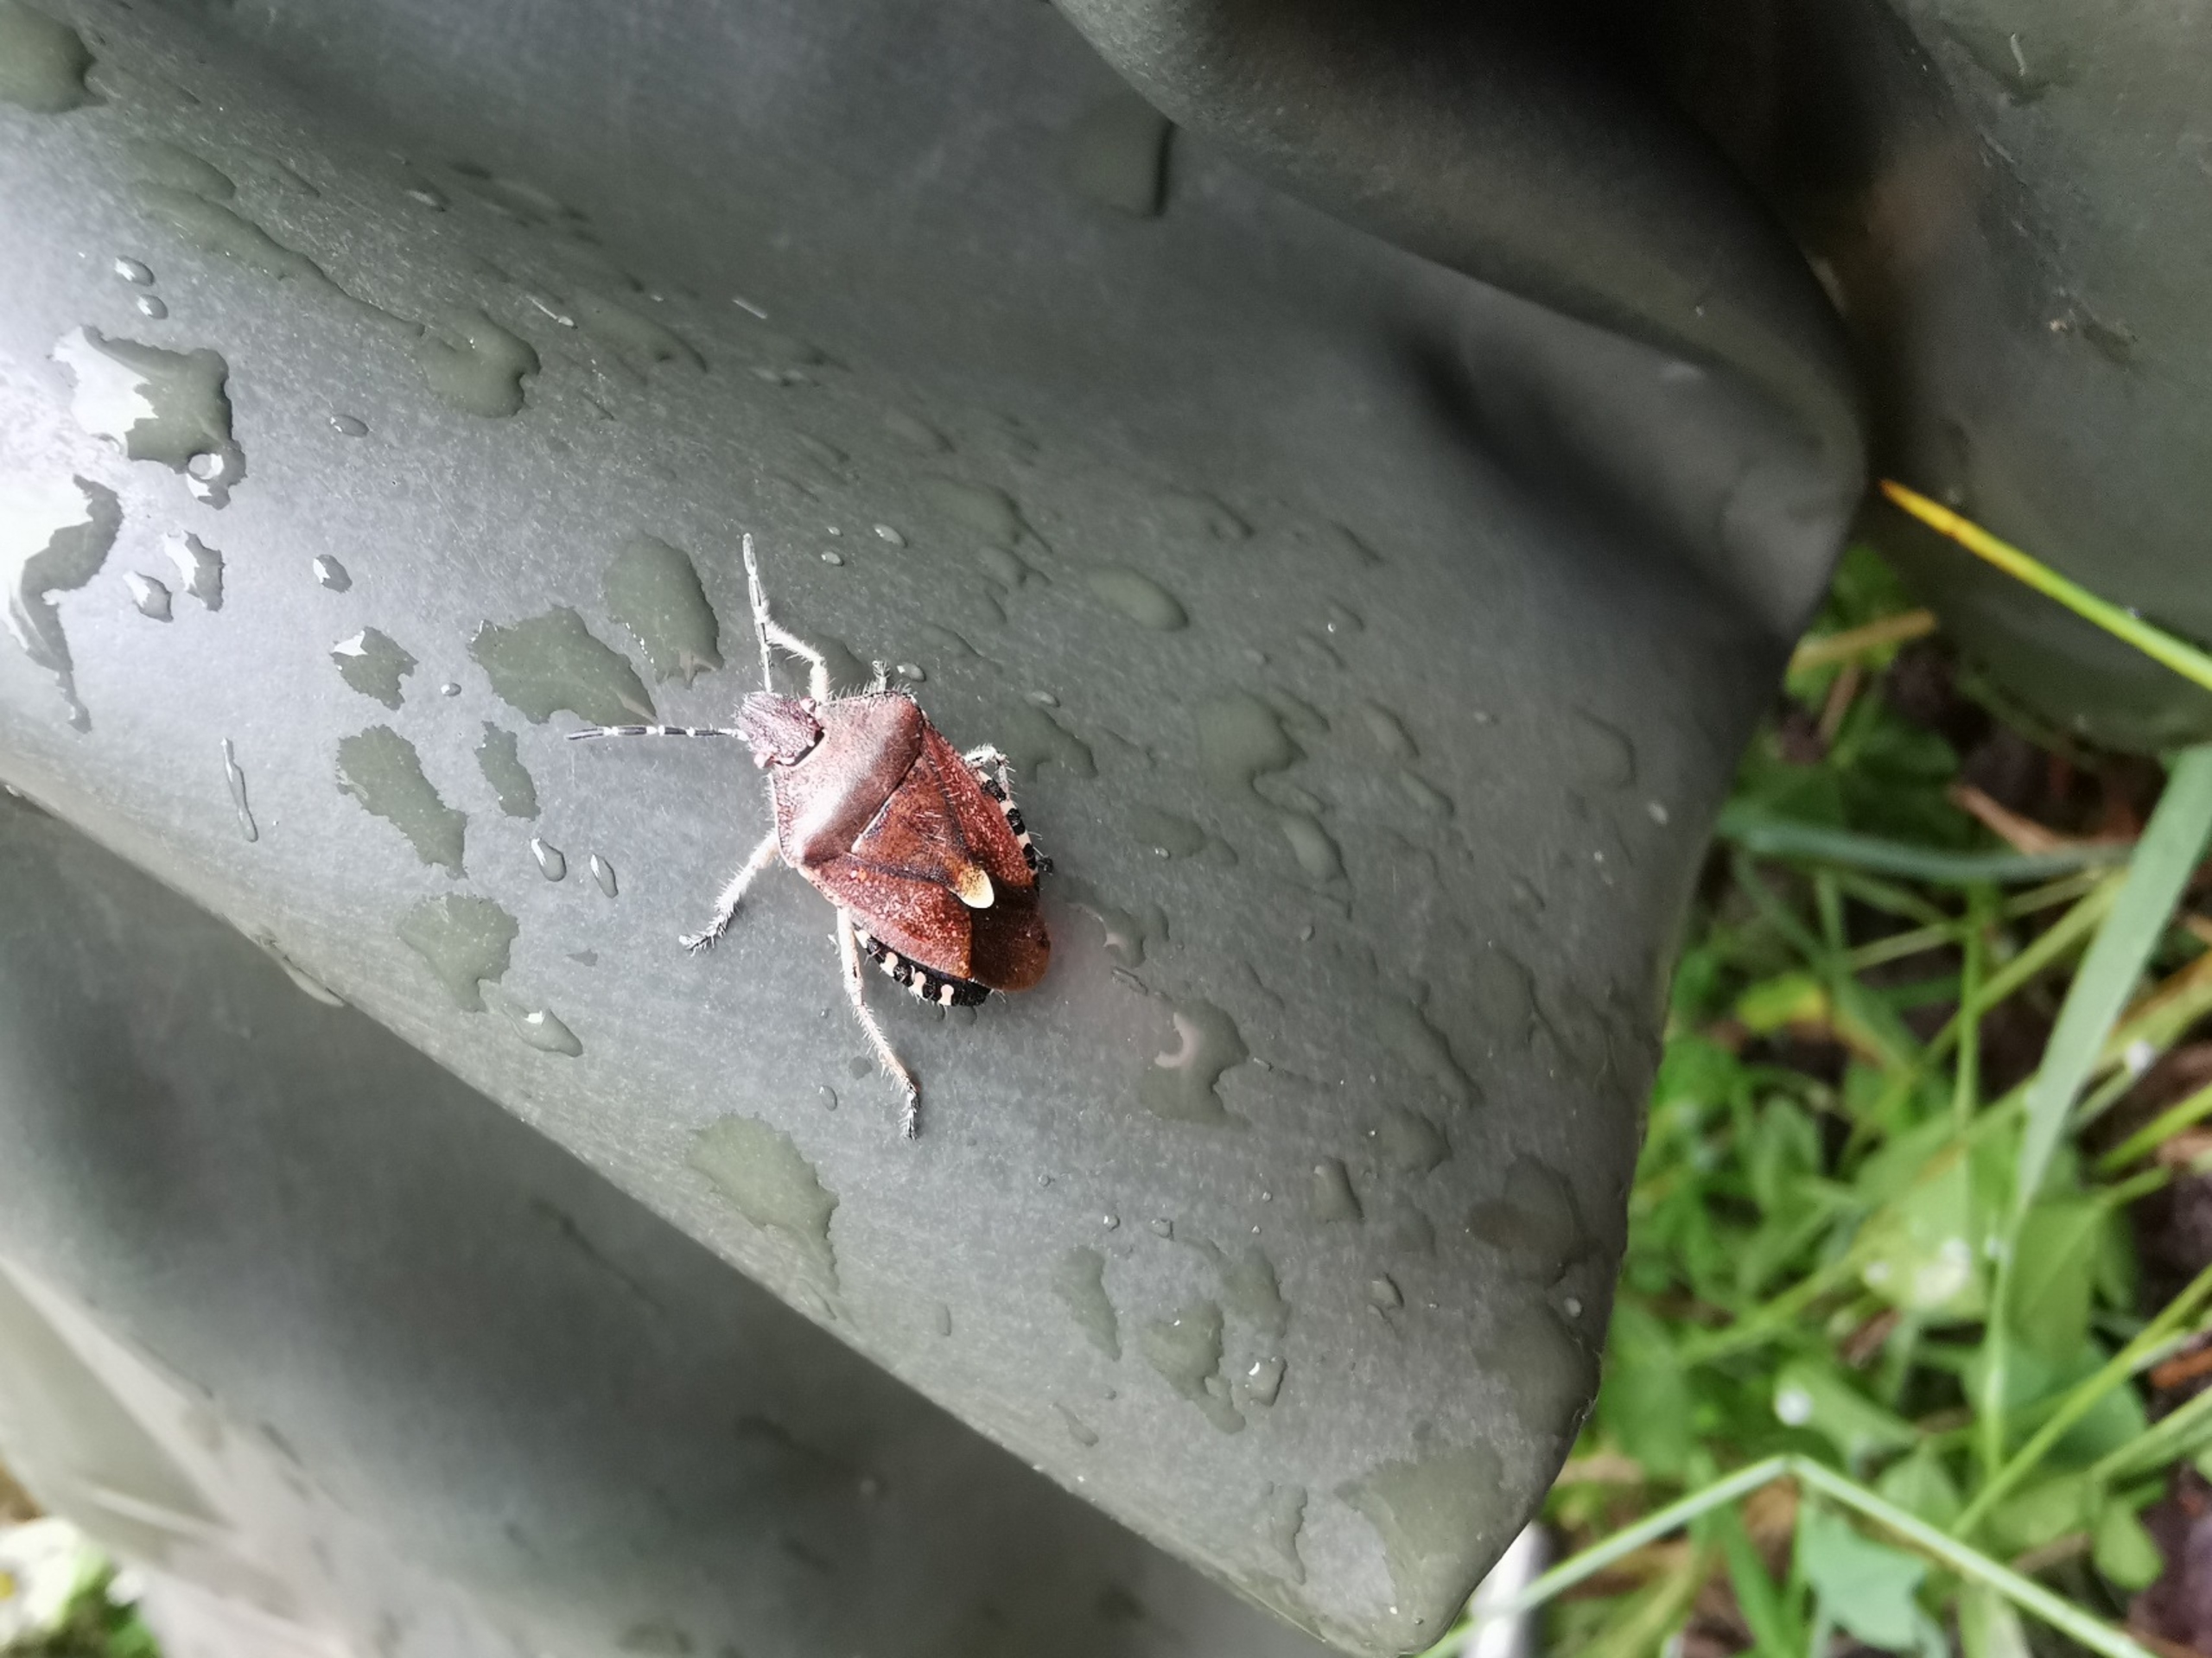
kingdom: Animalia
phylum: Arthropoda
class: Insecta
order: Hemiptera
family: Pentatomidae
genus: Dolycoris
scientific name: Dolycoris baccarum
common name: Almindelig bærtæge
